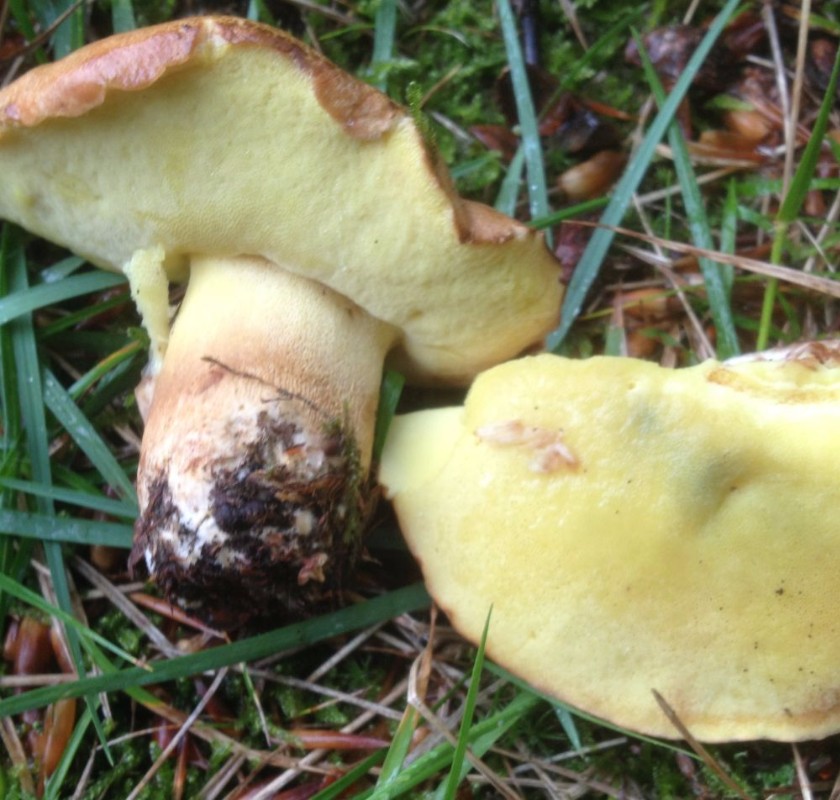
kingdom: Fungi
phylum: Basidiomycota
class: Agaricomycetes
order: Boletales
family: Boletaceae
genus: Butyriboletus
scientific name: Butyriboletus appendiculatus
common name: tenstokket rørhat
